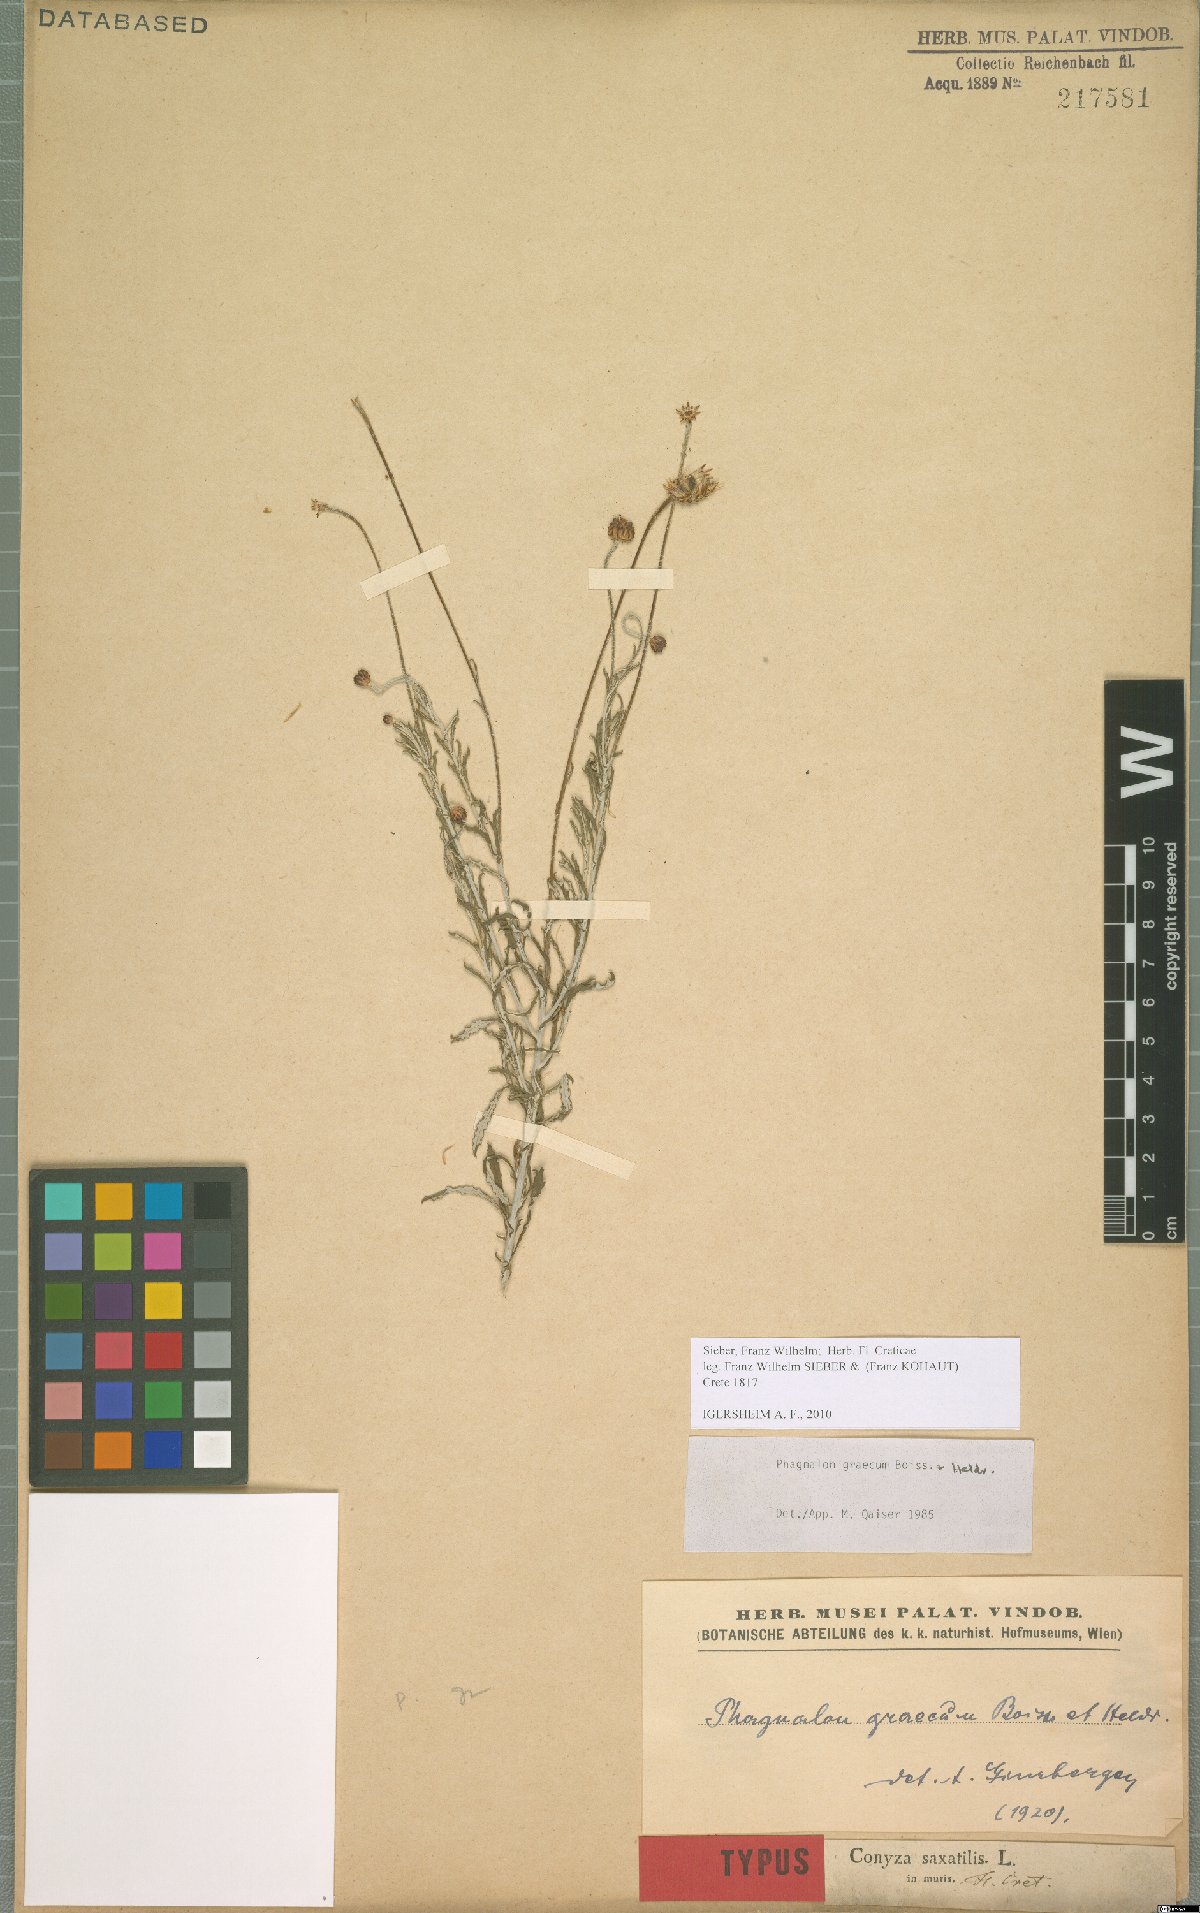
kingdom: Plantae
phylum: Tracheophyta
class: Magnoliopsida
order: Asterales
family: Asteraceae
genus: Phagnalon
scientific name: Phagnalon graecum
